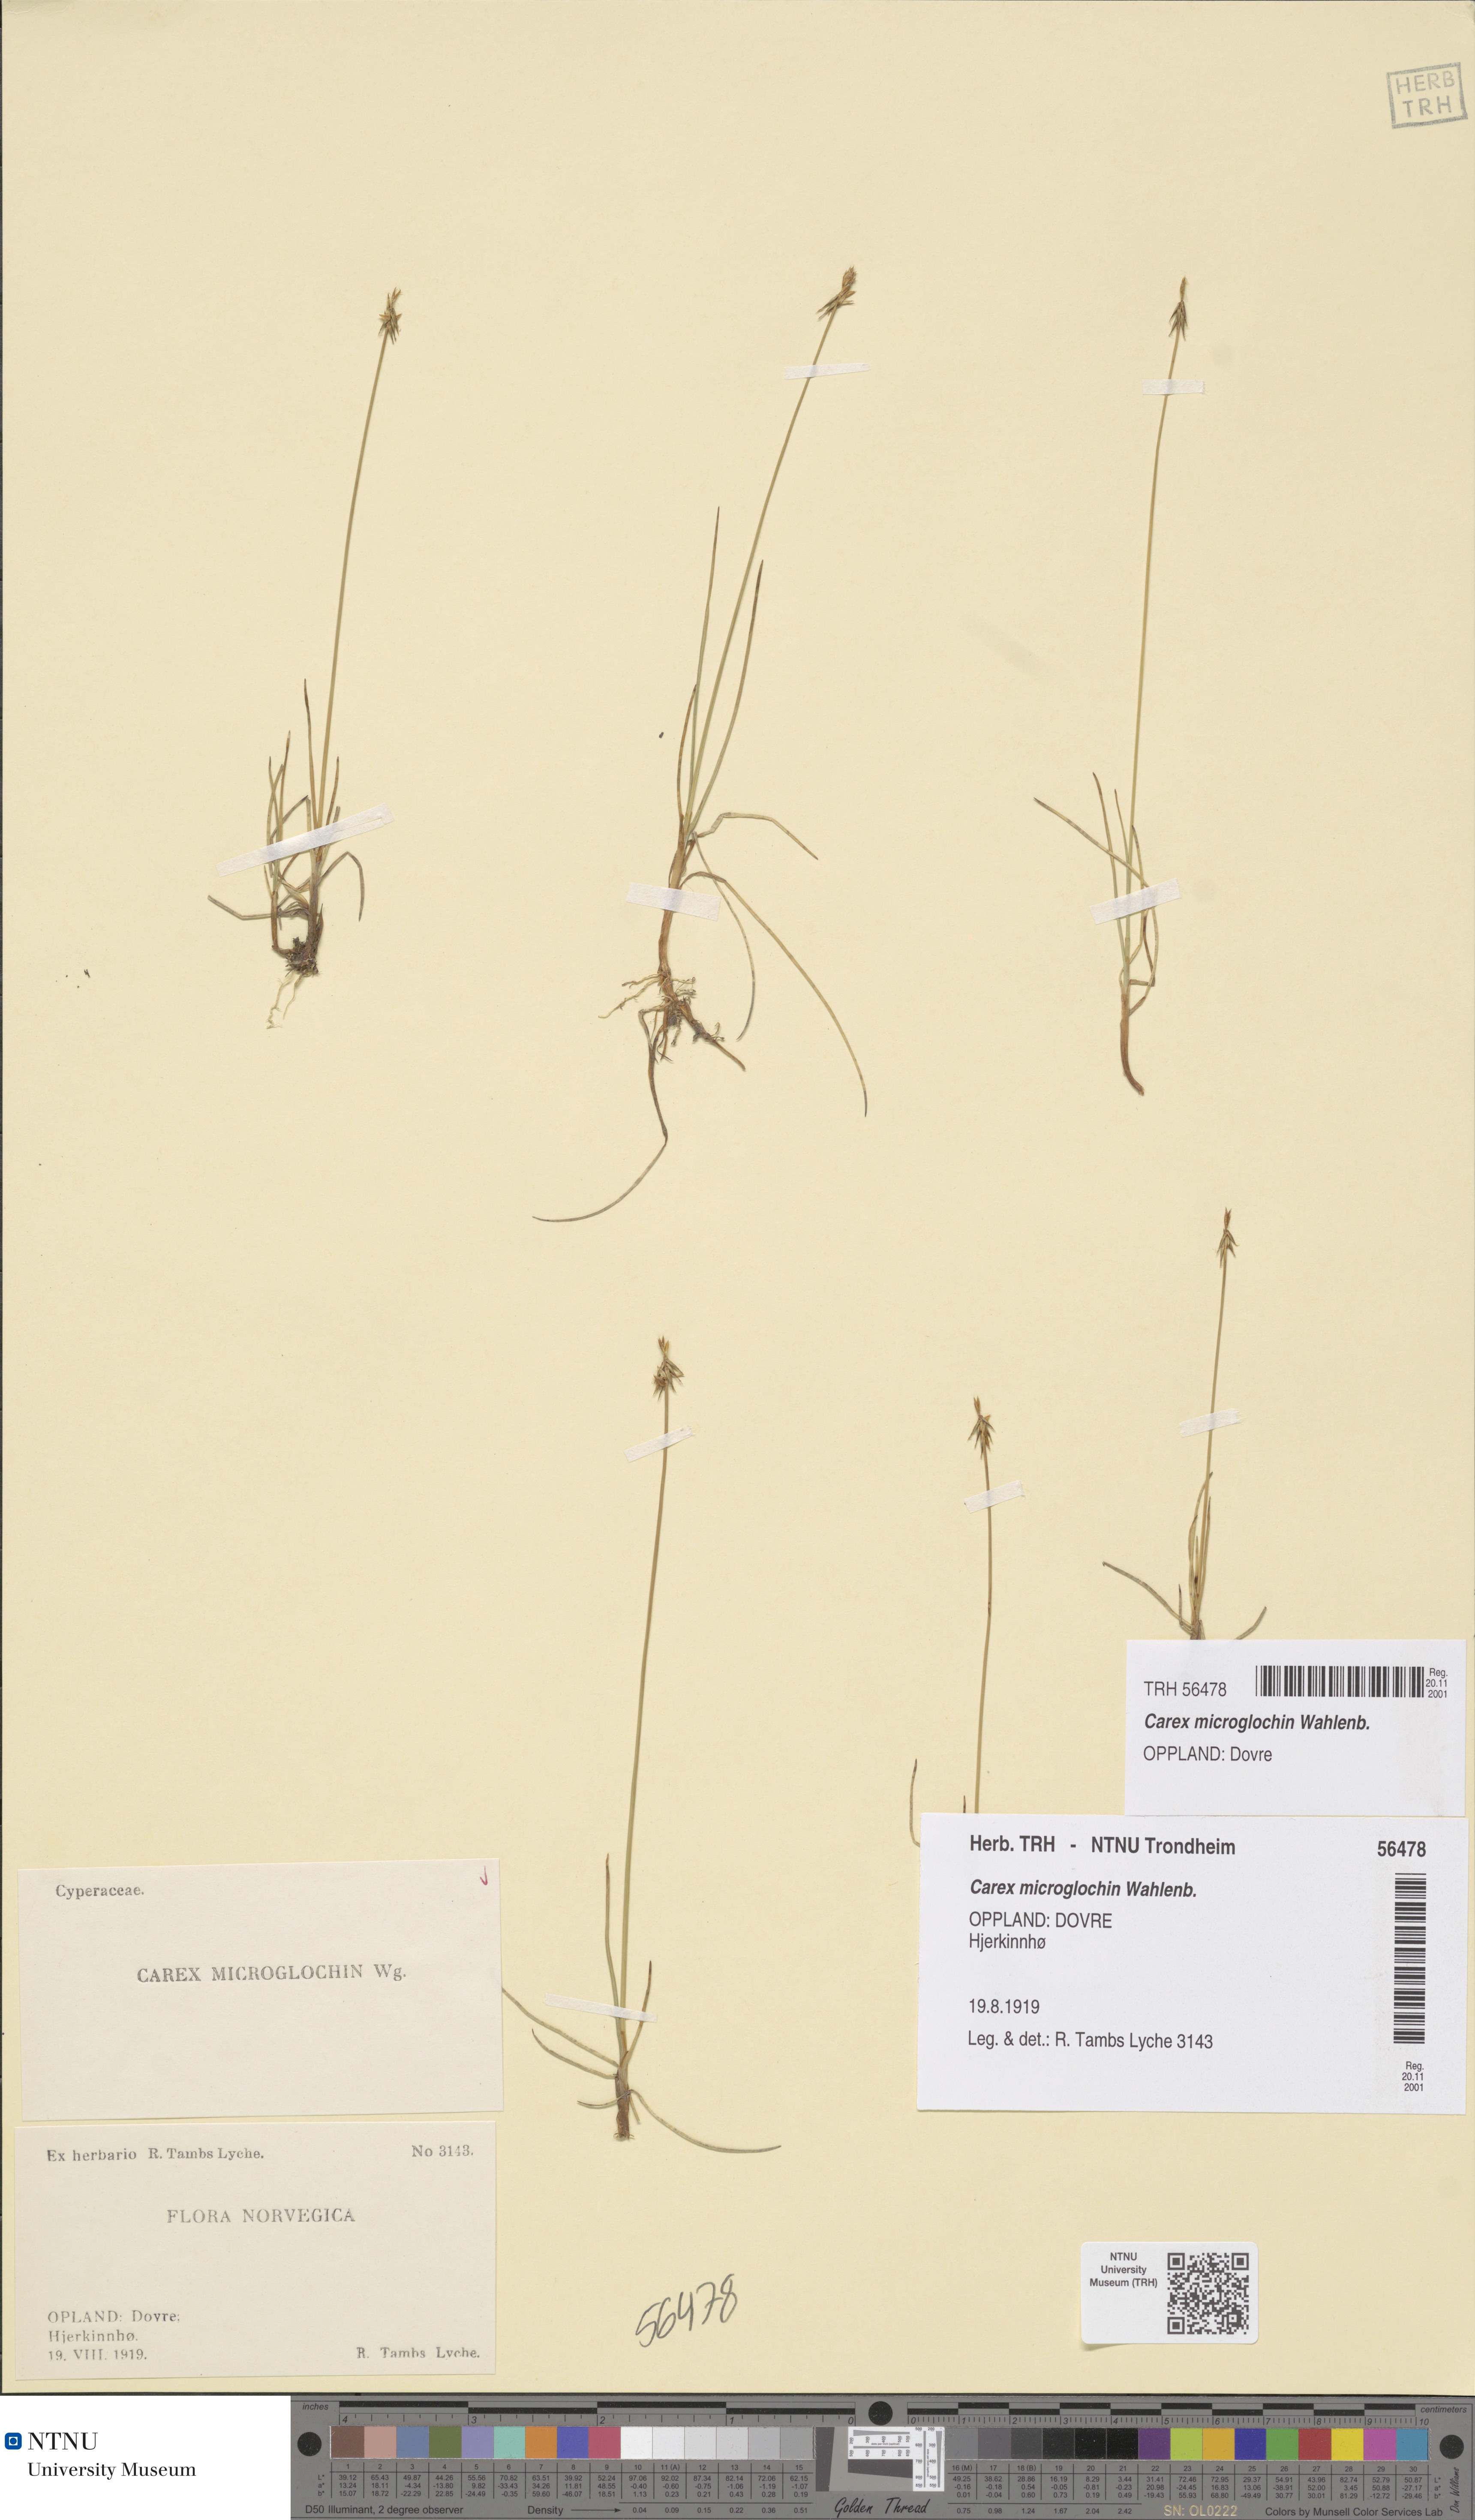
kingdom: Plantae
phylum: Tracheophyta
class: Liliopsida
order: Poales
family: Cyperaceae
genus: Carex
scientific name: Carex microglochin
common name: Bristle sedge
